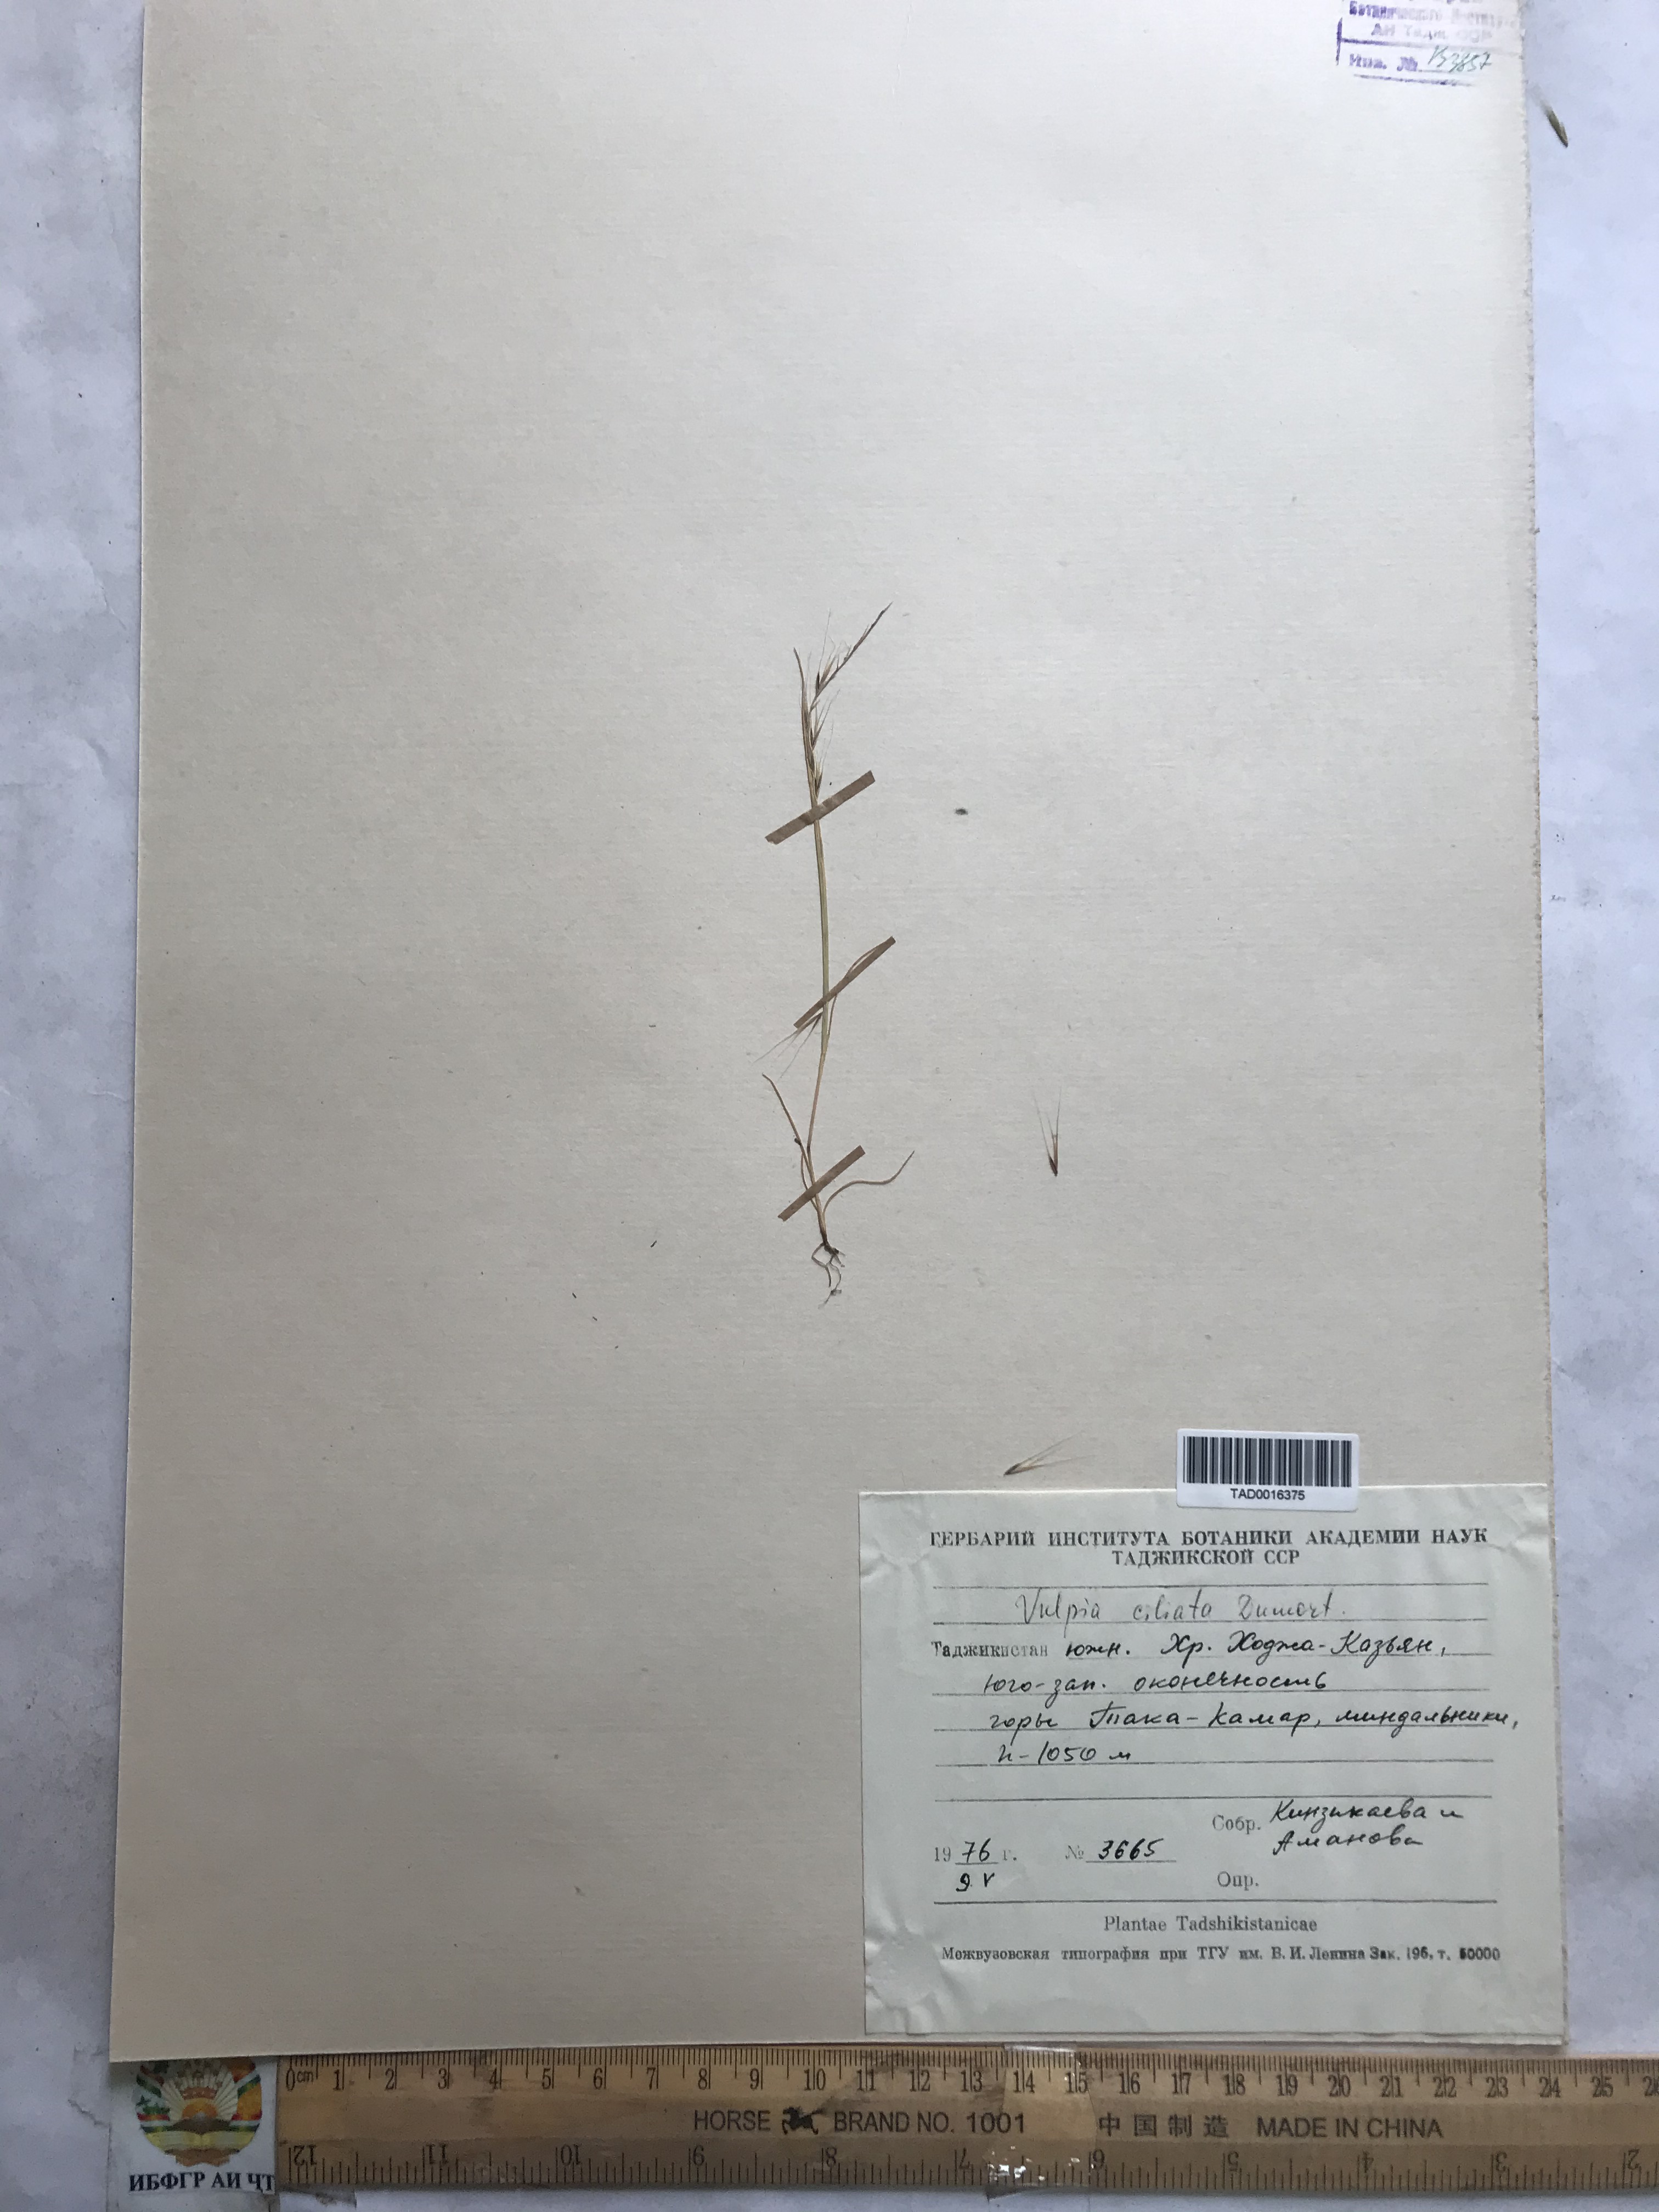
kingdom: Plantae
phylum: Tracheophyta
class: Liliopsida
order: Poales
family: Poaceae
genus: Festuca
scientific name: Festuca ambigua
